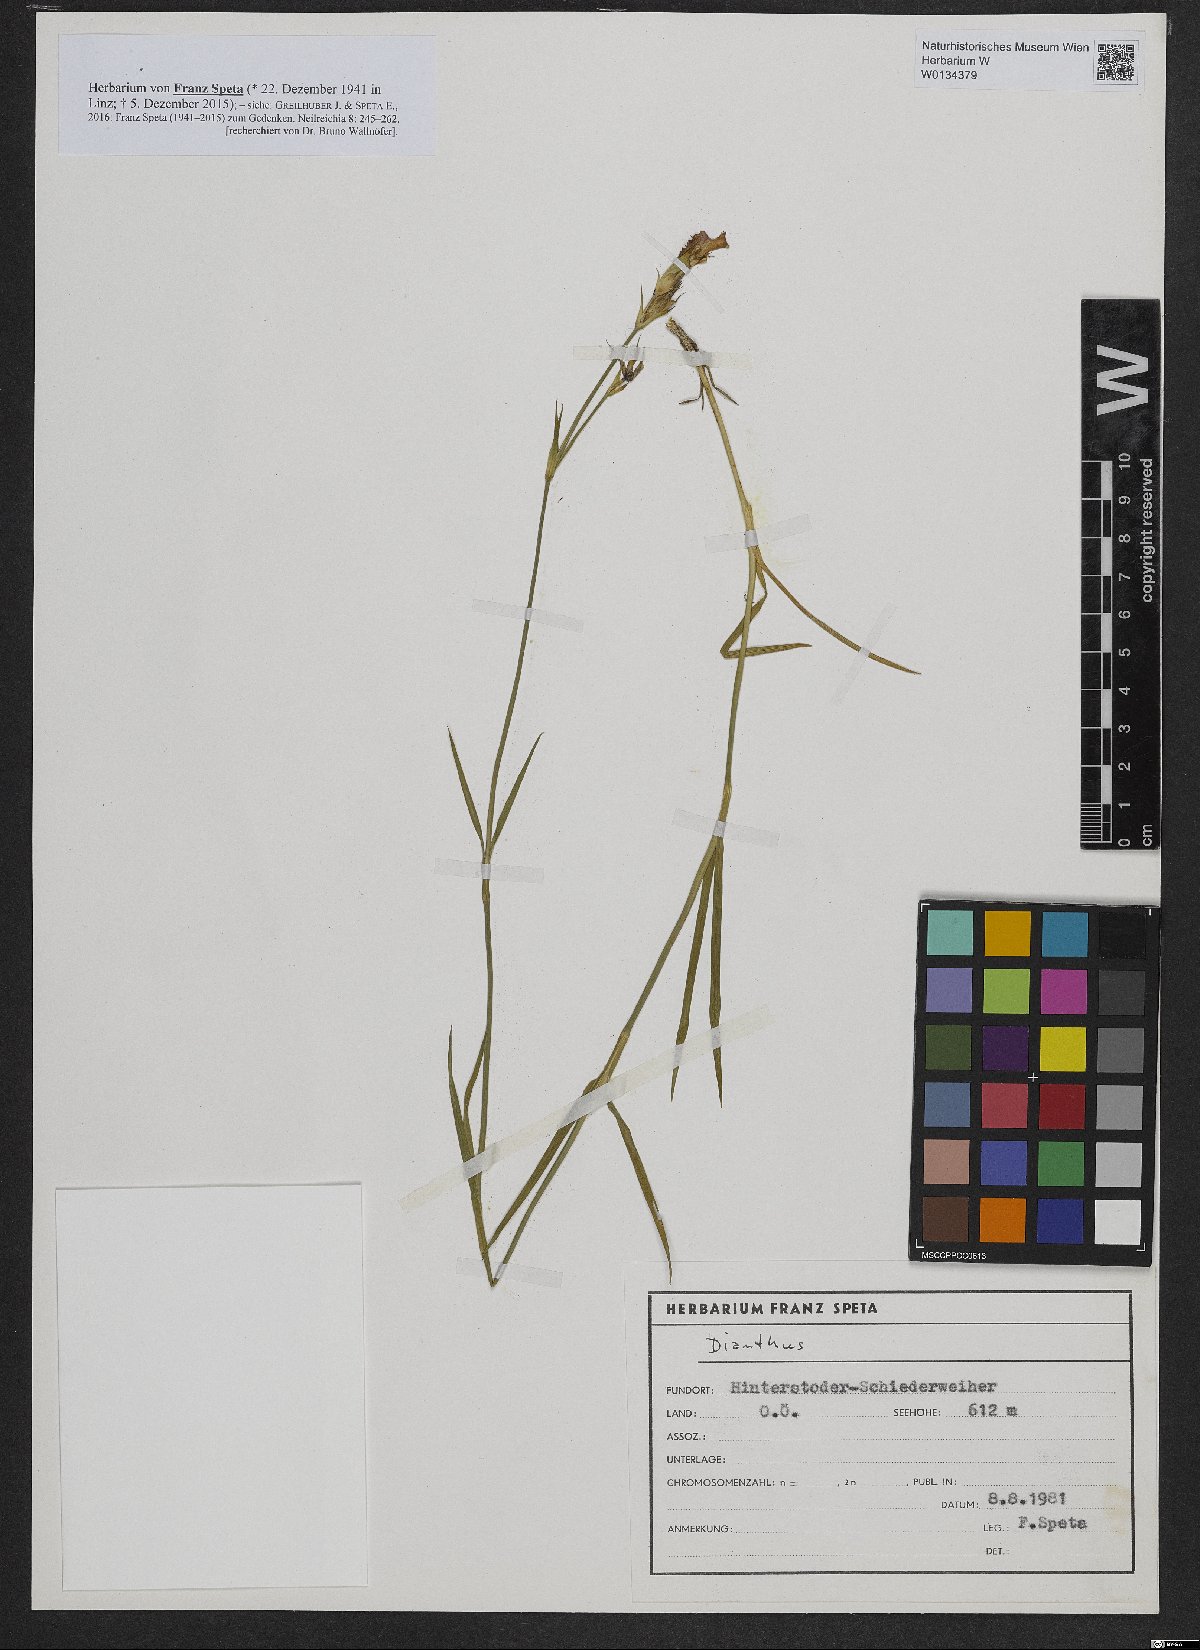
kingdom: Plantae
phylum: Tracheophyta
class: Magnoliopsida
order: Caryophyllales
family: Caryophyllaceae
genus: Dianthus
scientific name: Dianthus
